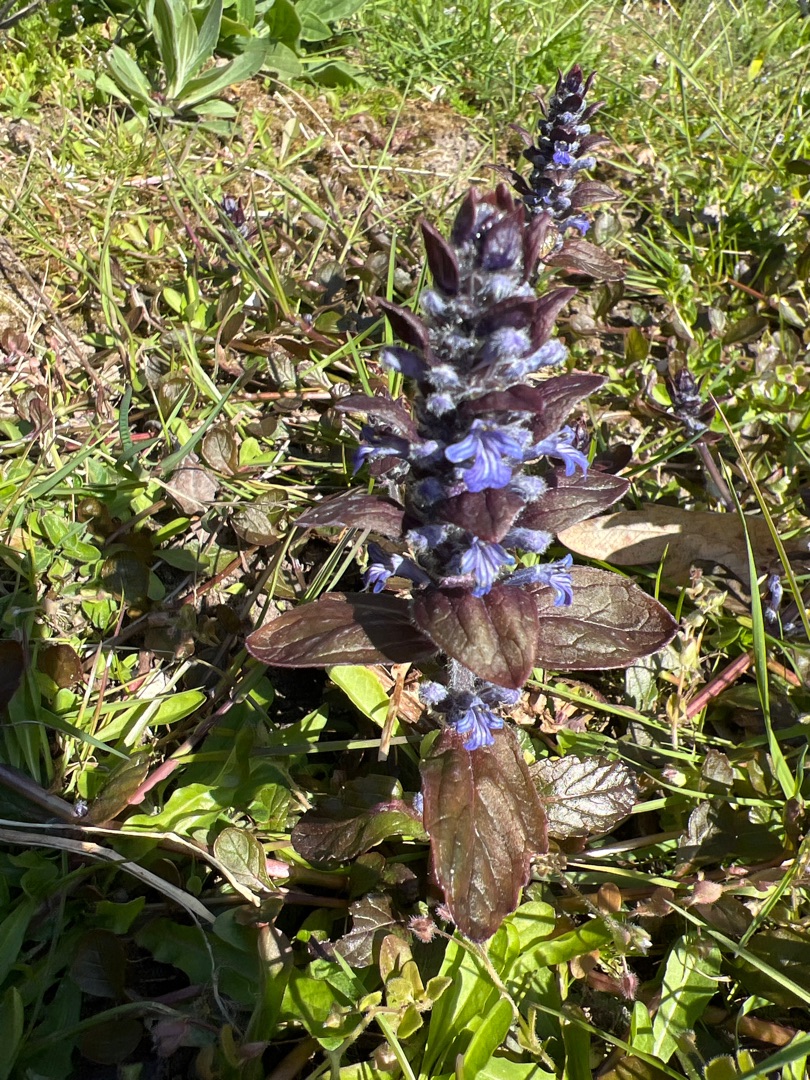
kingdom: Plantae
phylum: Tracheophyta
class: Magnoliopsida
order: Lamiales
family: Lamiaceae
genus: Ajuga
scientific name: Ajuga reptans
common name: Krybende læbeløs
